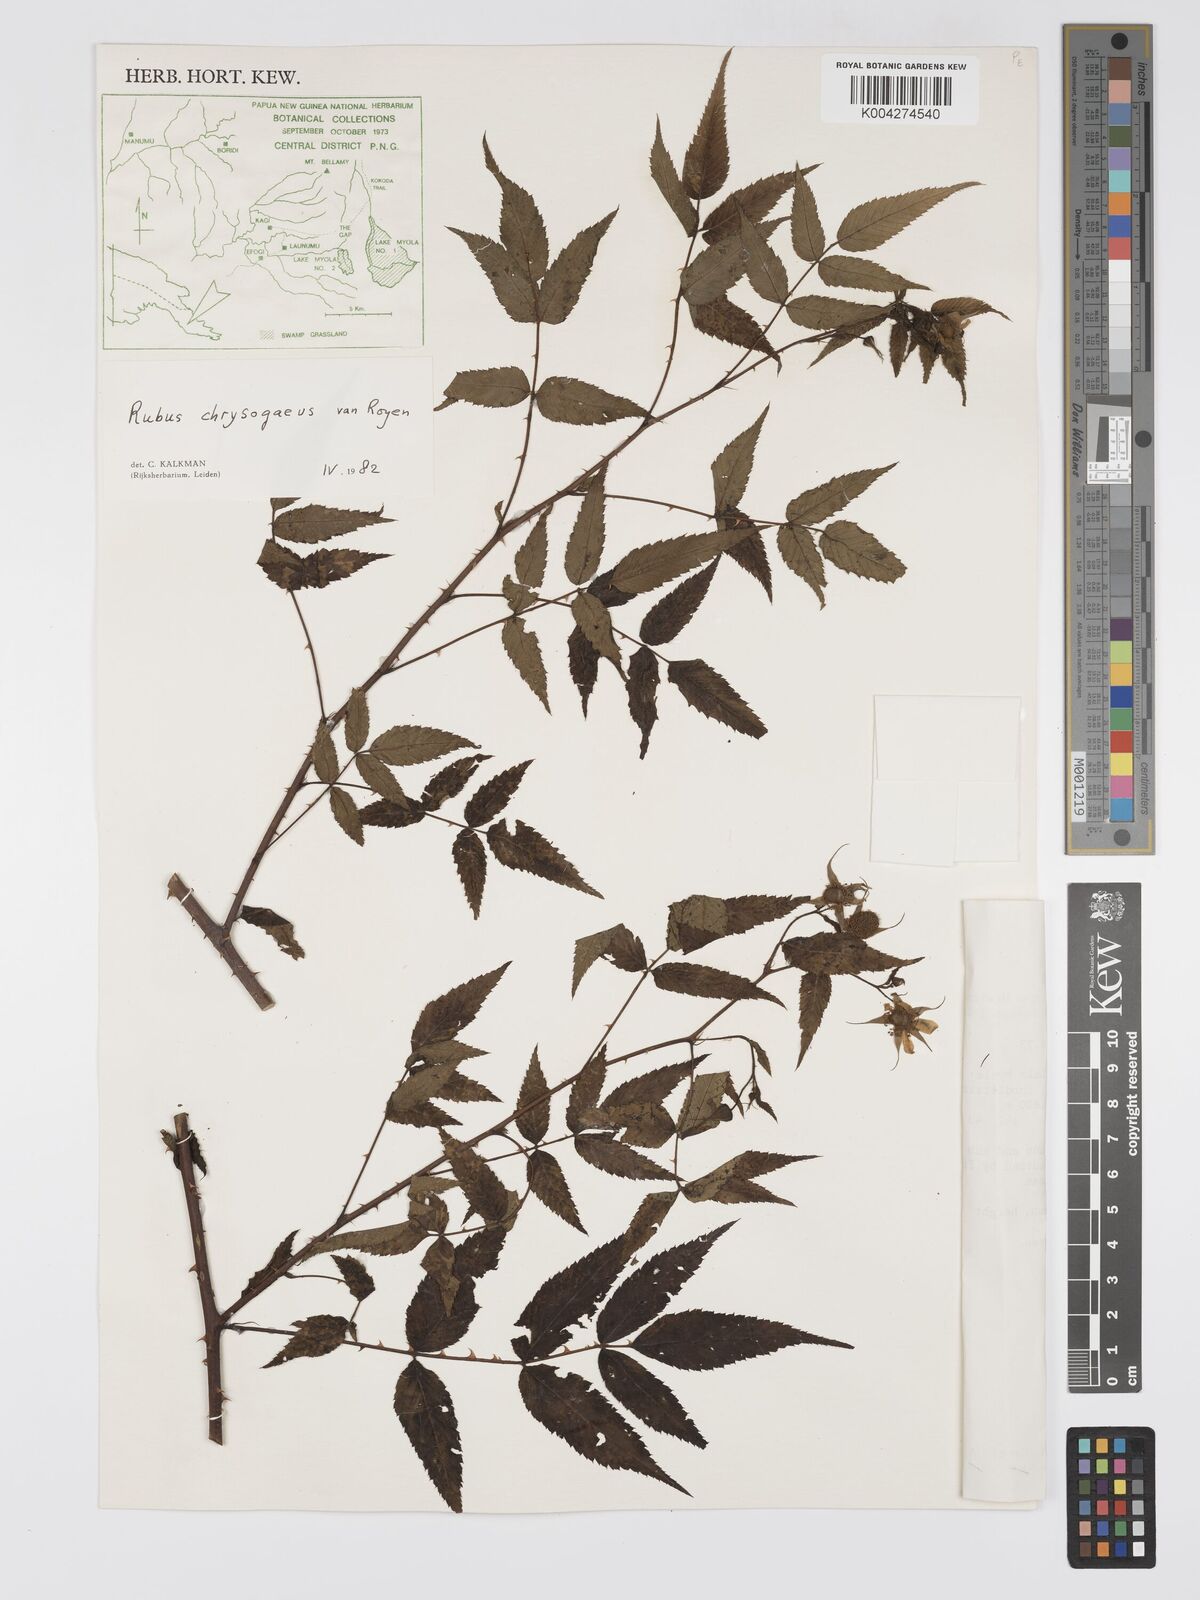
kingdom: Plantae
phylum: Tracheophyta
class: Magnoliopsida
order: Rosales
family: Rosaceae
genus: Rubus
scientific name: Rubus chrysogaeus
